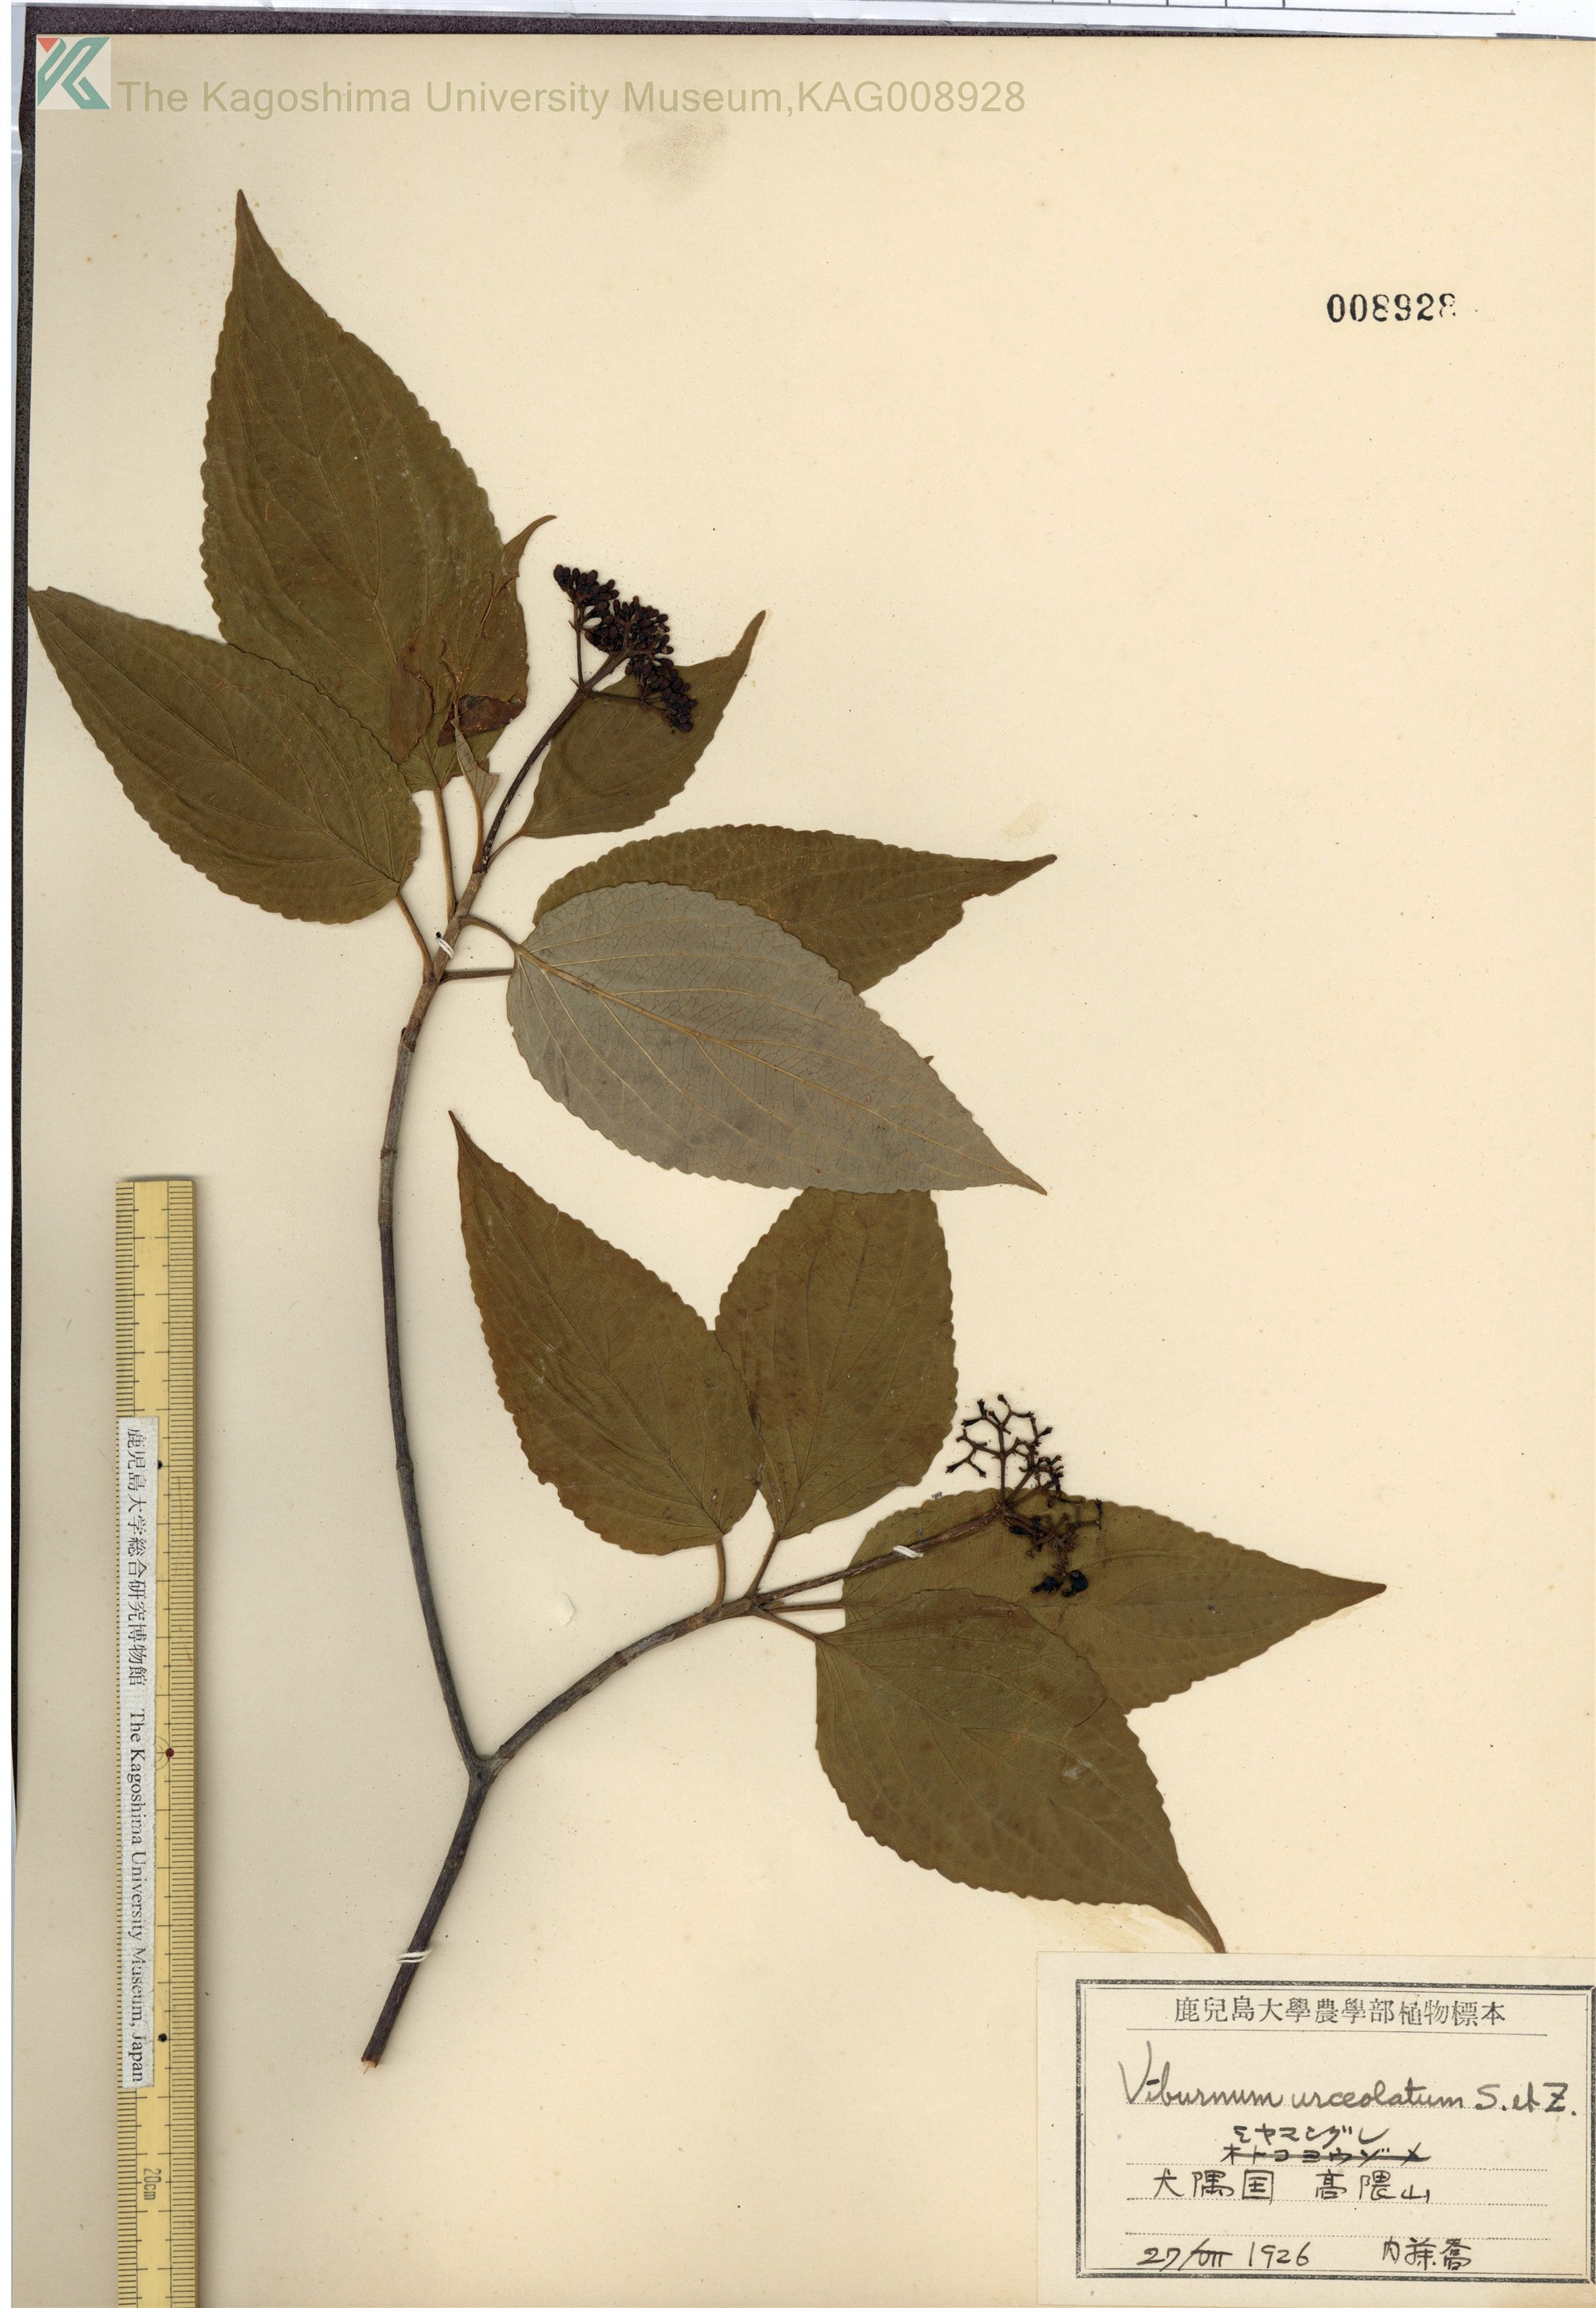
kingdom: Plantae
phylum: Tracheophyta
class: Magnoliopsida
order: Dipsacales
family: Viburnaceae
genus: Viburnum
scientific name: Viburnum urceolatum
